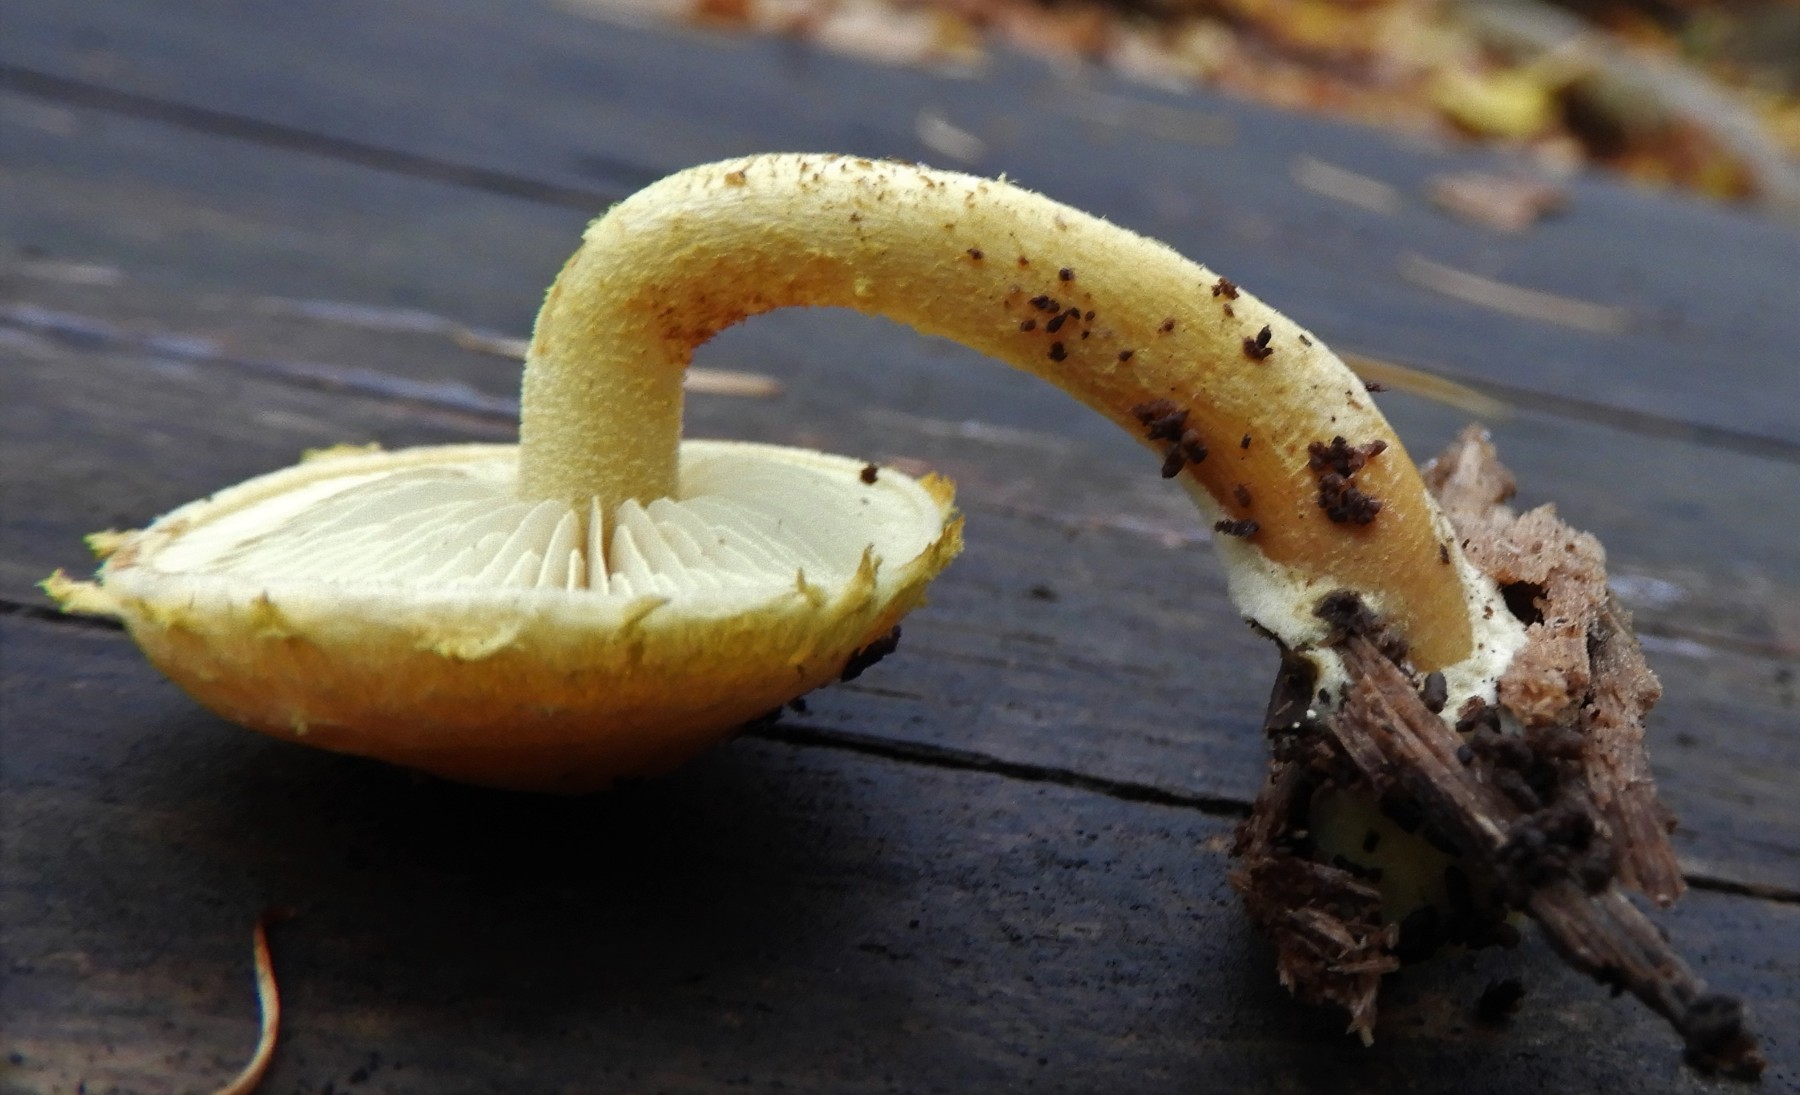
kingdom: Fungi
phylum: Basidiomycota
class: Agaricomycetes
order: Agaricales
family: Strophariaceae
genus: Pholiota
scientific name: Pholiota tuberculosa
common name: finskællet skælhat
